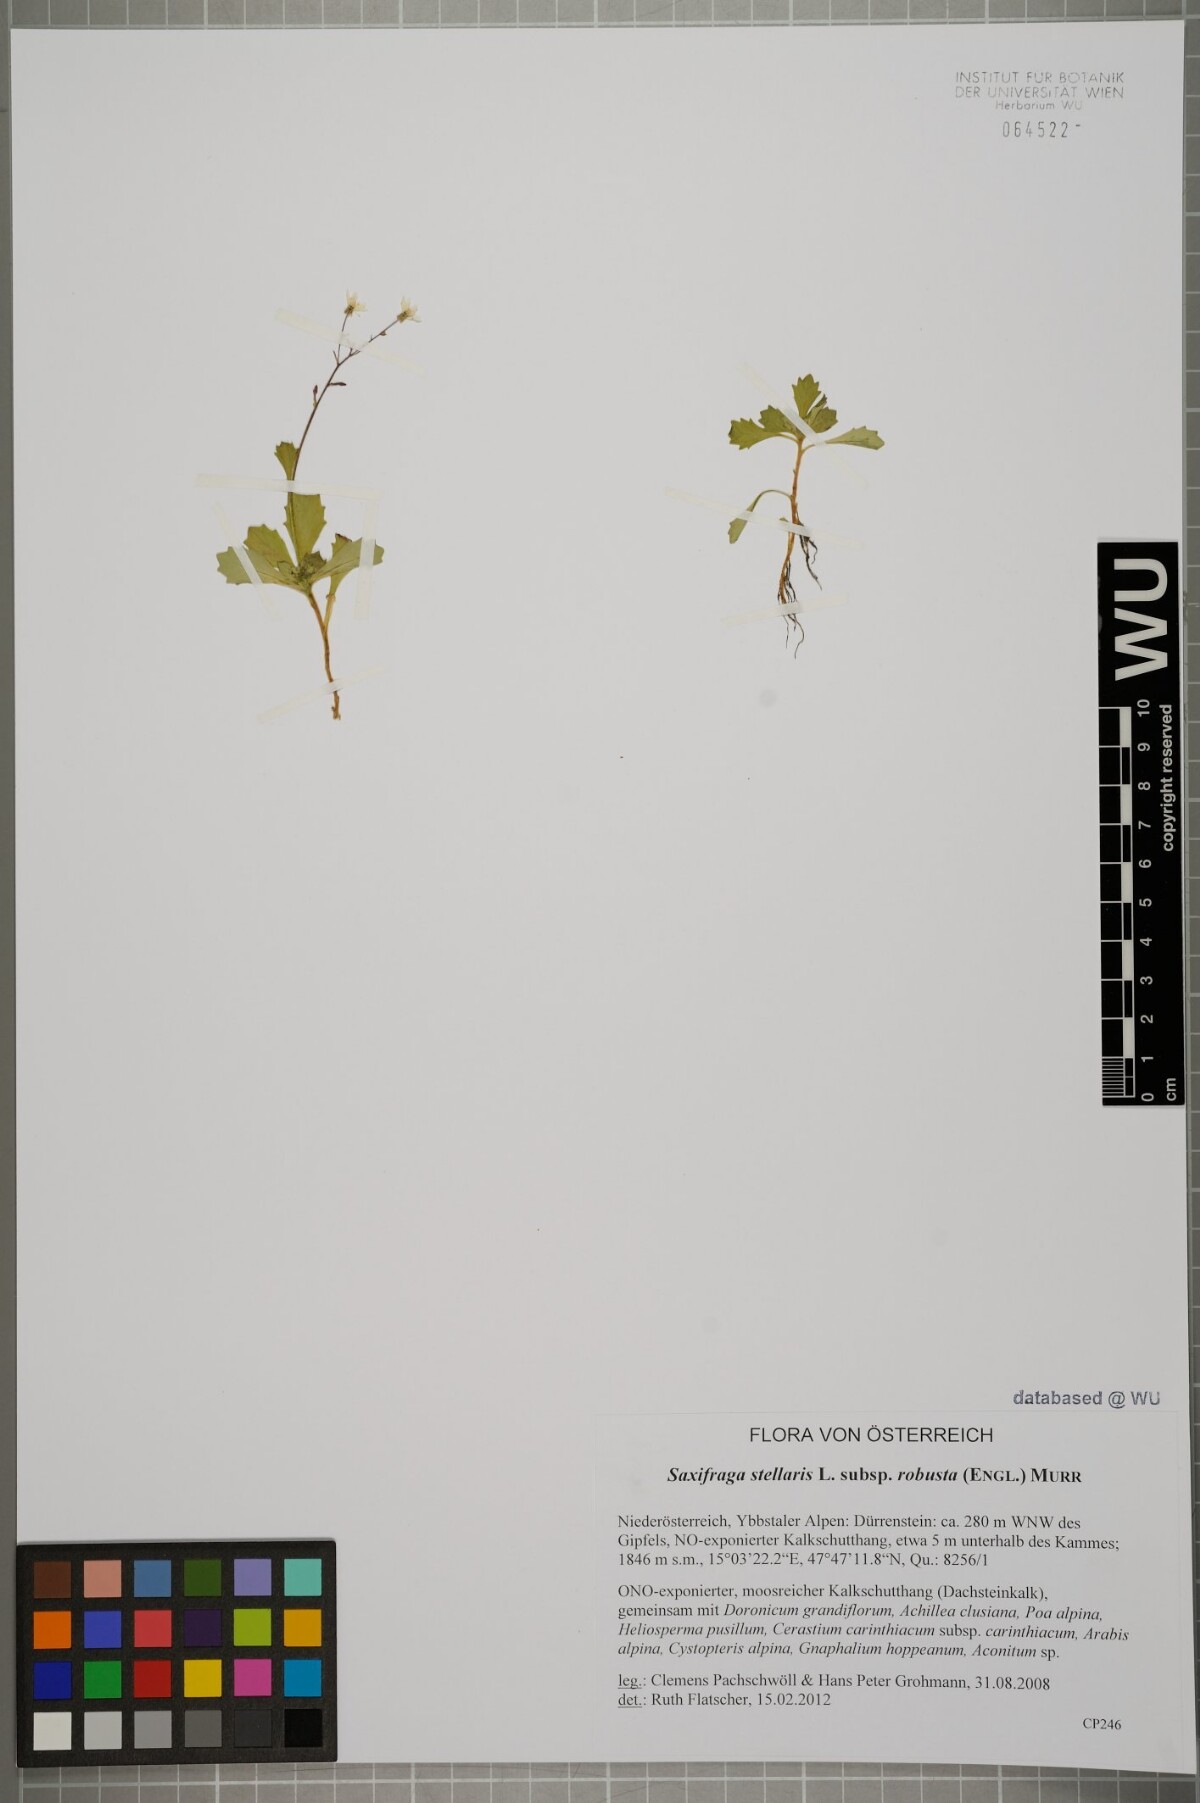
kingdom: Plantae
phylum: Tracheophyta
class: Magnoliopsida
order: Saxifragales
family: Saxifragaceae
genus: Micranthes
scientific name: Micranthes stellaris
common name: Starry saxifrage
